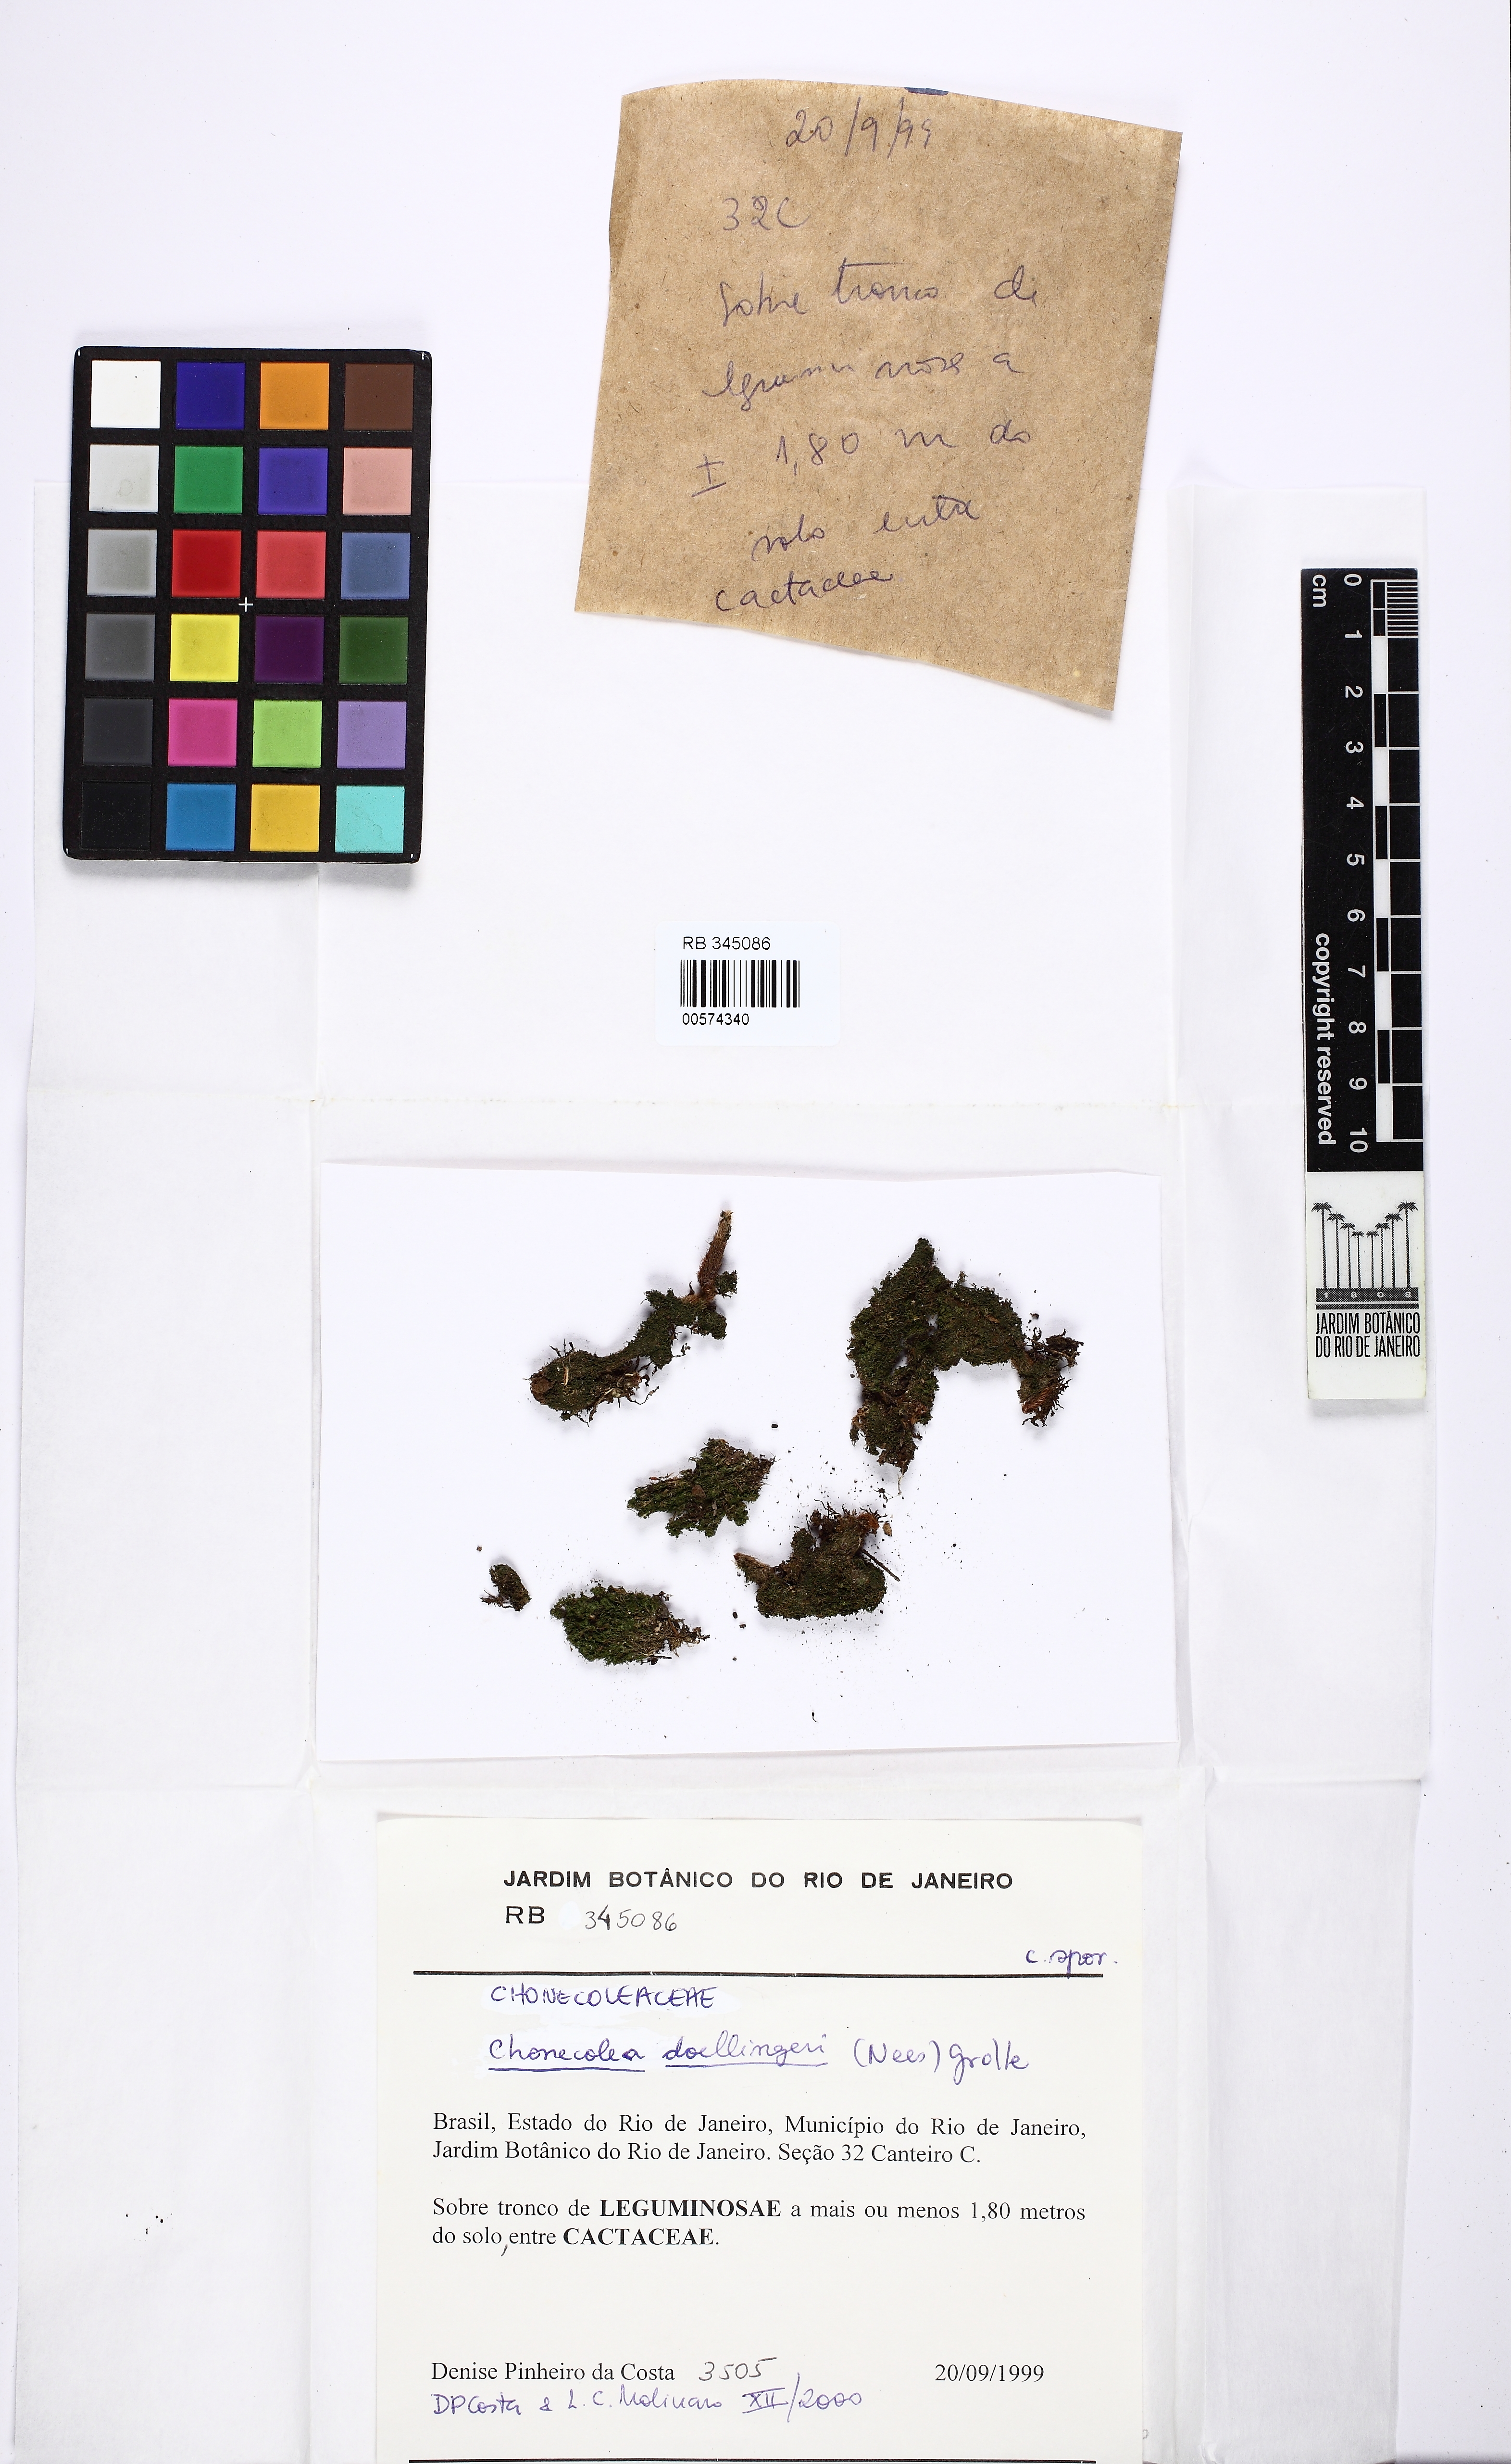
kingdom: Plantae
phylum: Marchantiophyta
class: Jungermanniopsida
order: Jungermanniales
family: Cephaloziellaceae
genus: Chonecolea
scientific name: Chonecolea doellingeri
